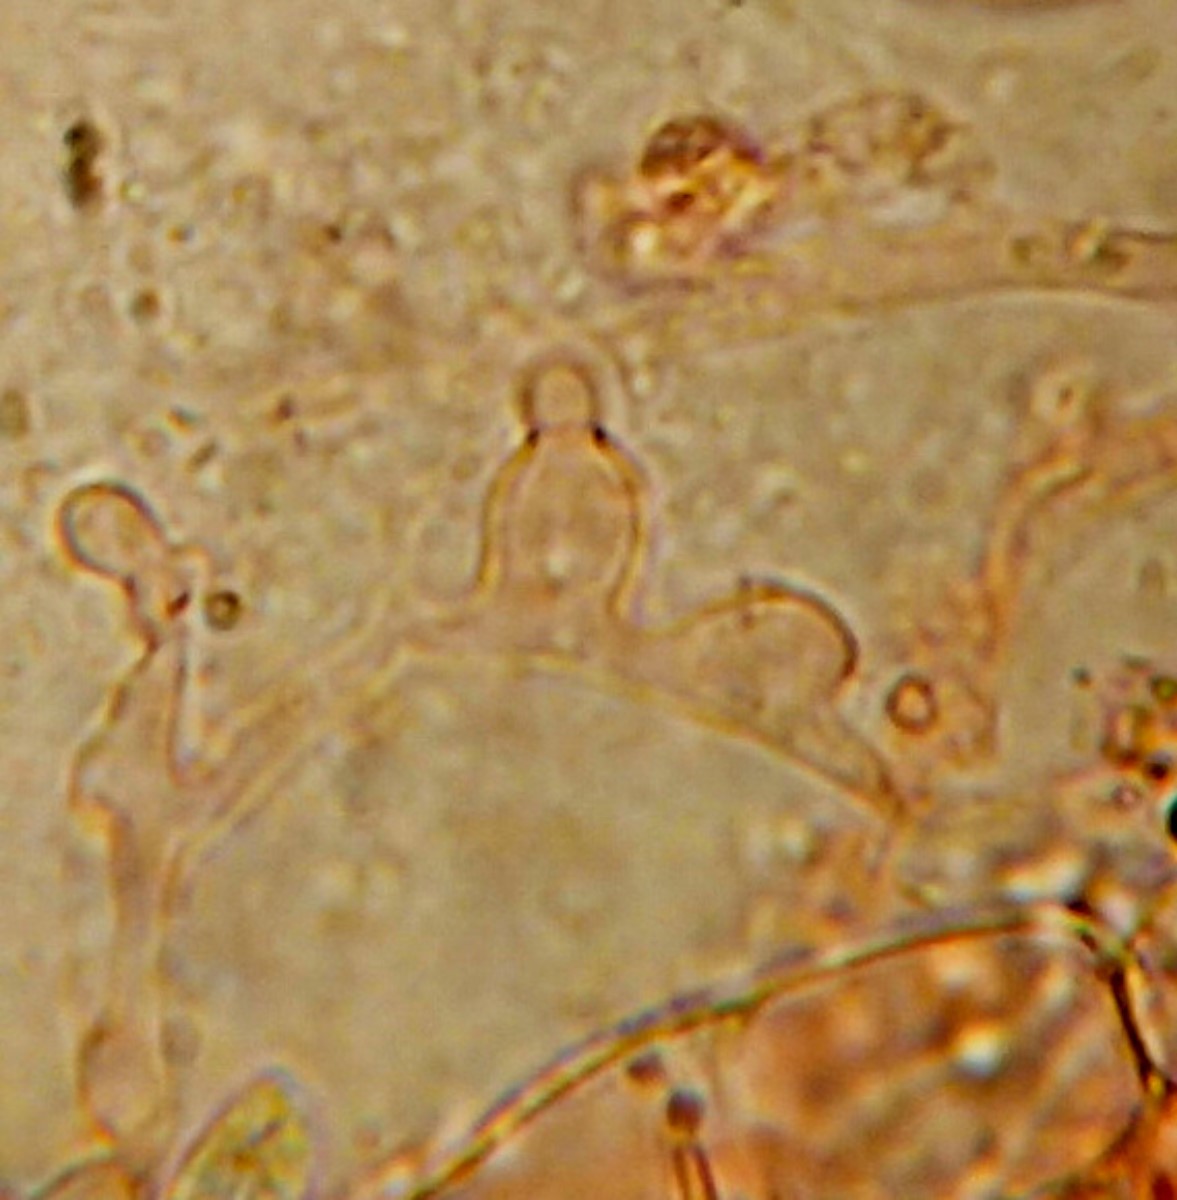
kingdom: Fungi
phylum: Basidiomycota
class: Agaricomycetes
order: Agaricales
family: Porotheleaceae
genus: Phloeomana
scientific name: Phloeomana speirea
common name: kvist-huesvamp
